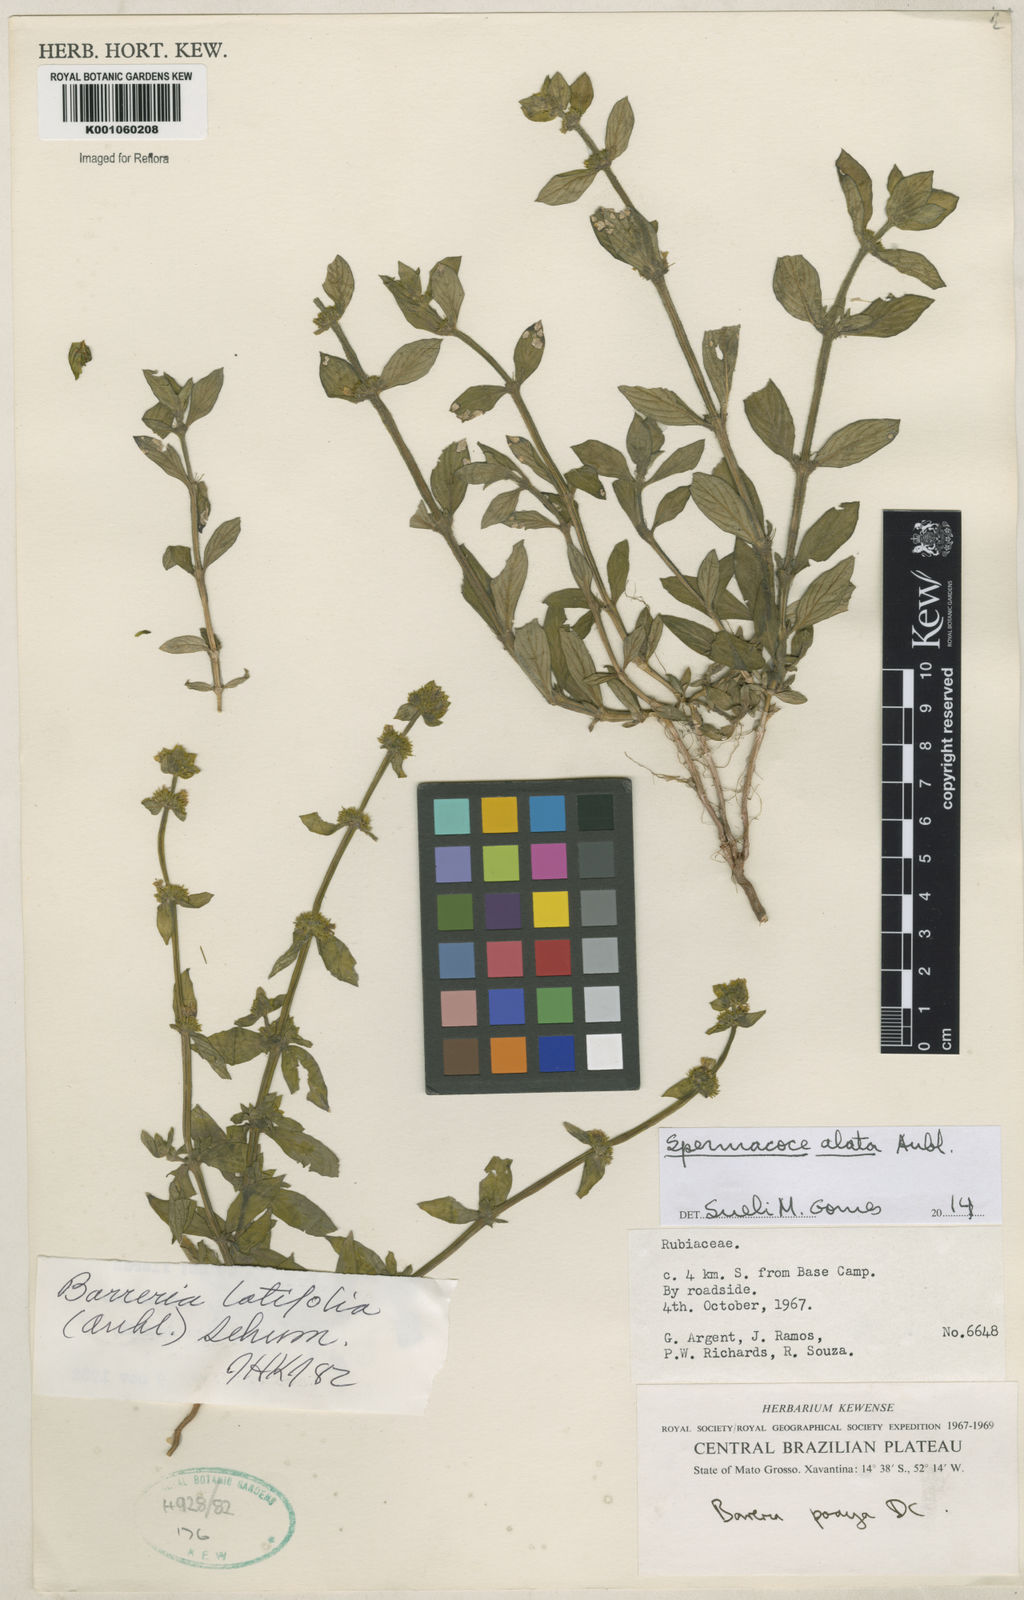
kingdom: Plantae
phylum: Tracheophyta
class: Magnoliopsida
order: Gentianales
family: Rubiaceae
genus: Spermacoce
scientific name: Spermacoce
